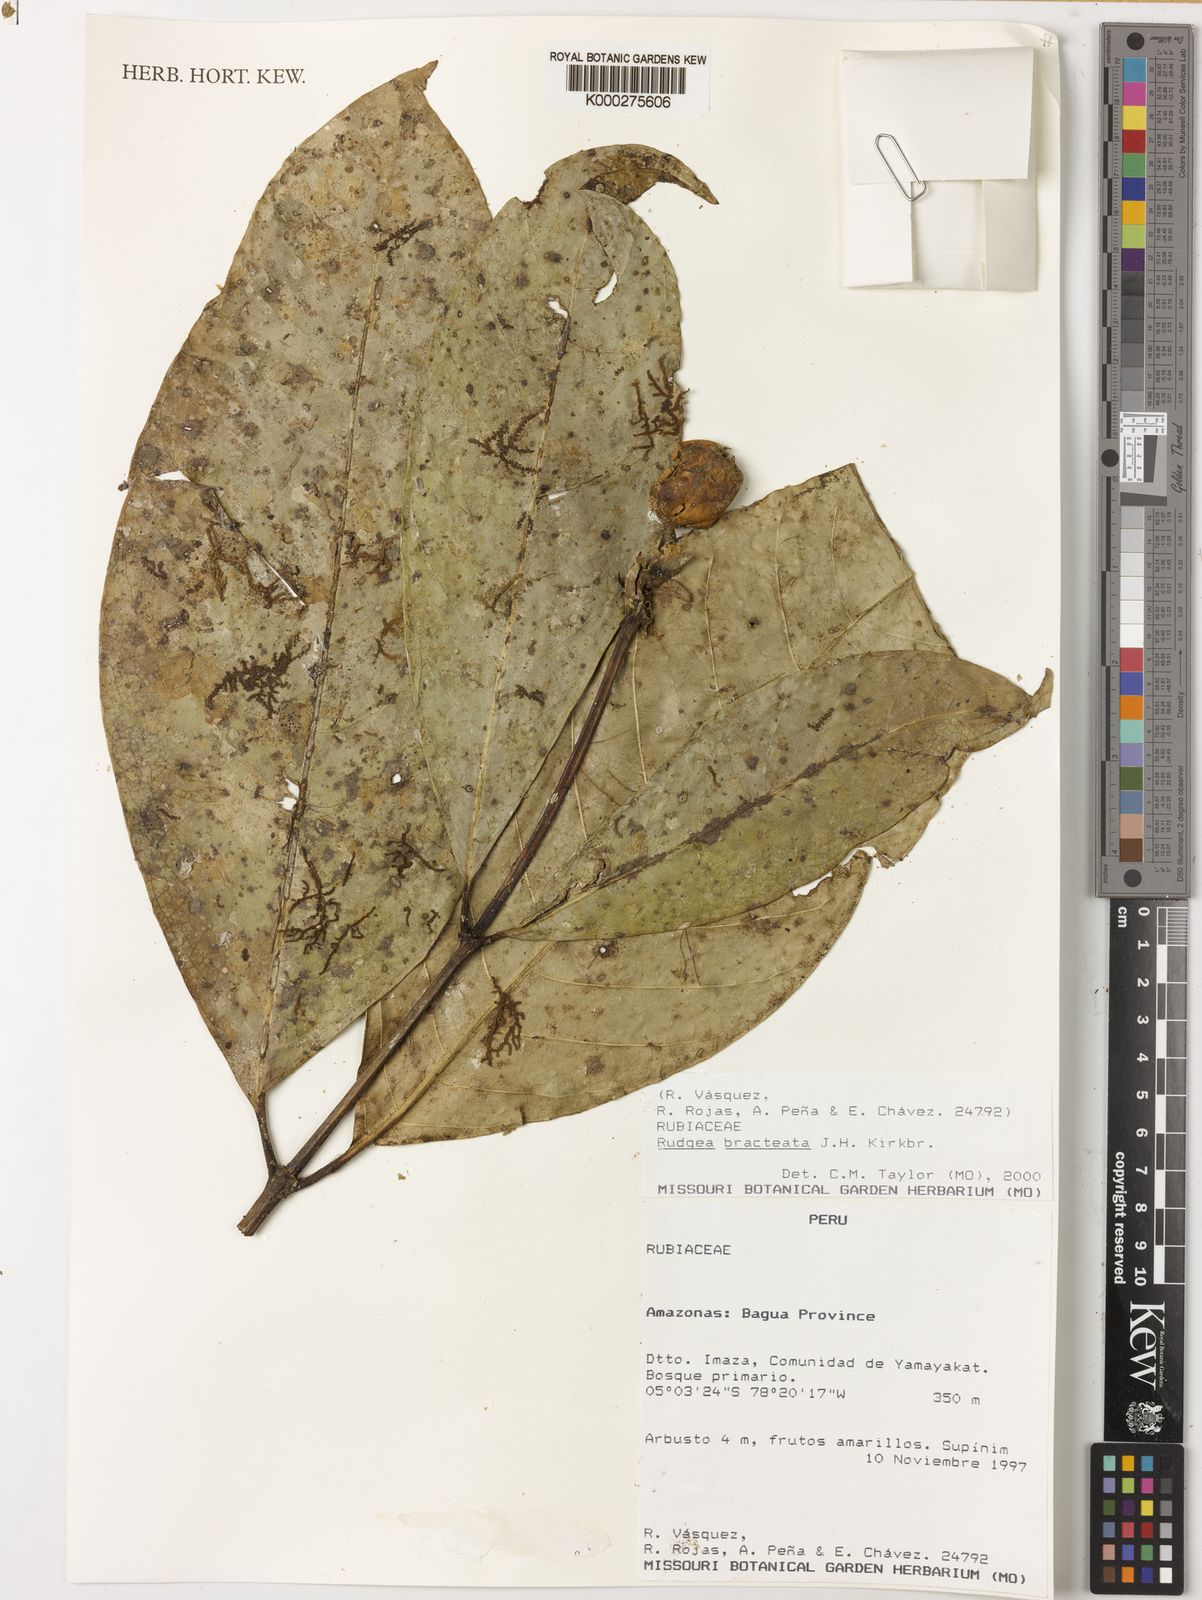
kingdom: Plantae
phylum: Tracheophyta
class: Magnoliopsida
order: Gentianales
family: Rubiaceae
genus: Rudgea
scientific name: Rudgea bracteata
